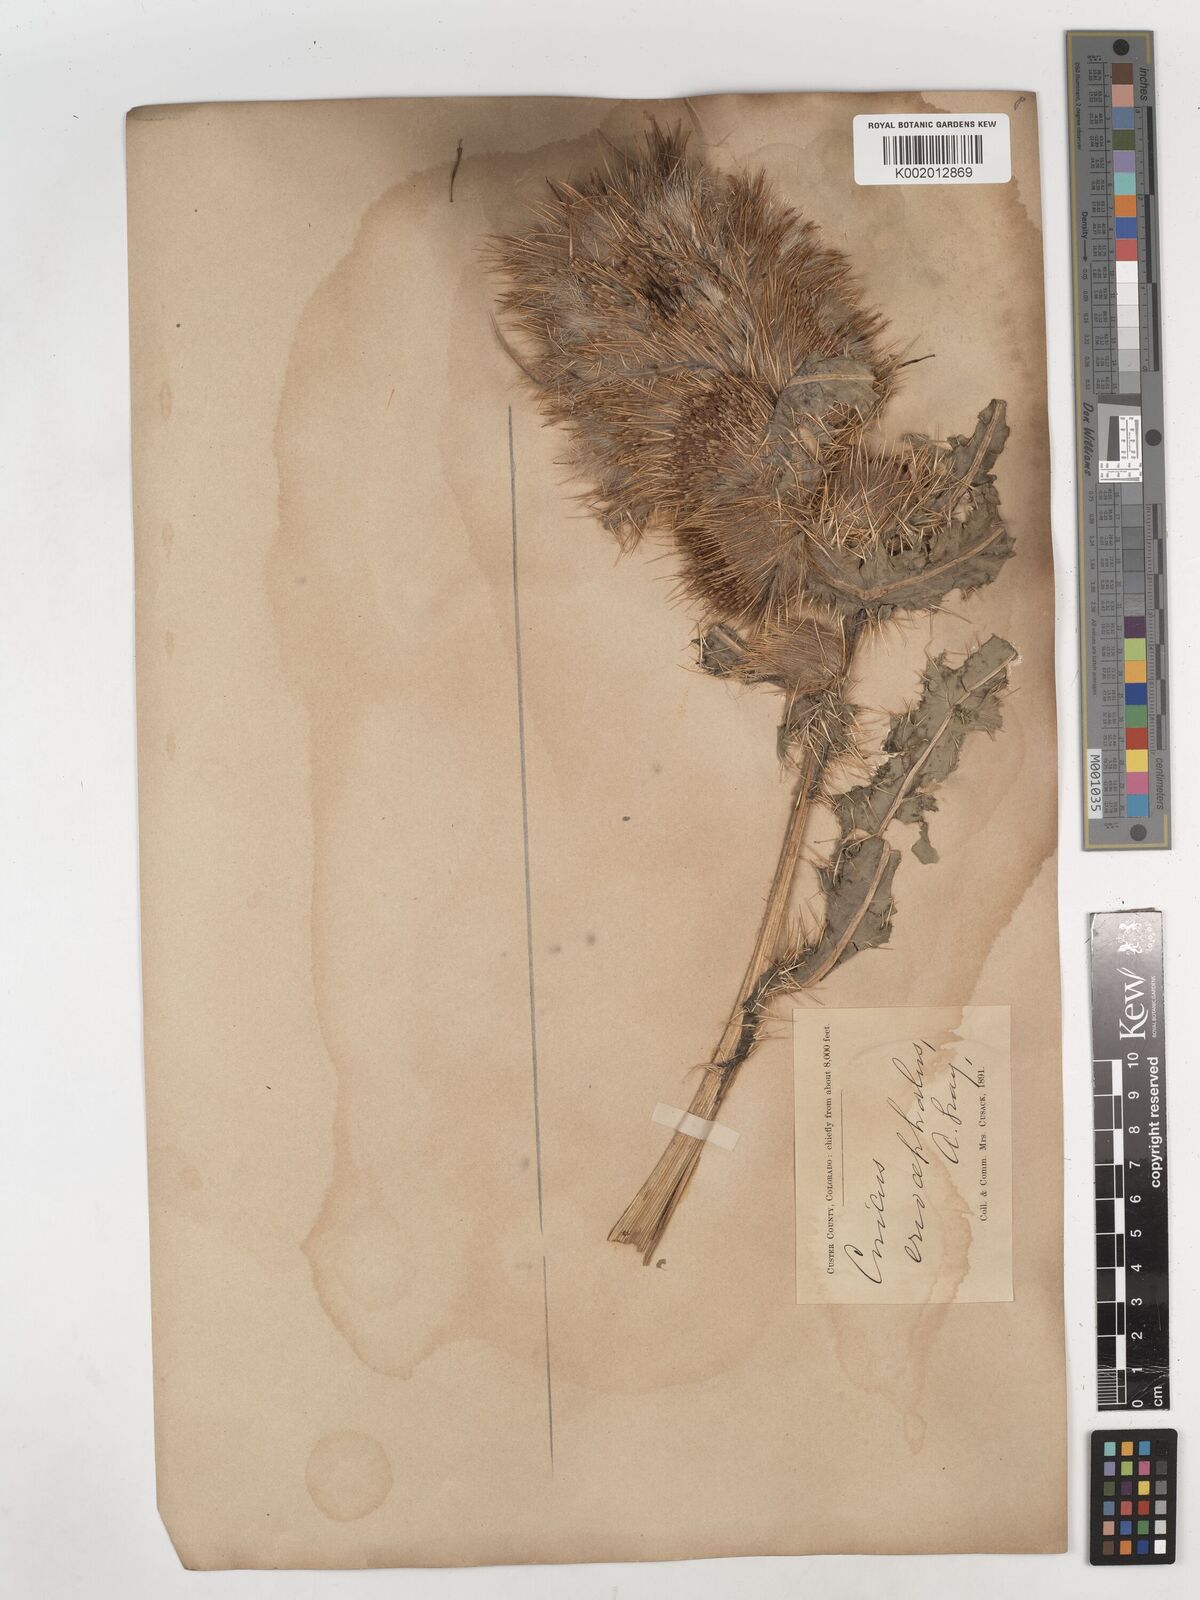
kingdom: Plantae
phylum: Tracheophyta
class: Magnoliopsida
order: Asterales
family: Asteraceae
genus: Cirsium
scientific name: Cirsium scopulorum
